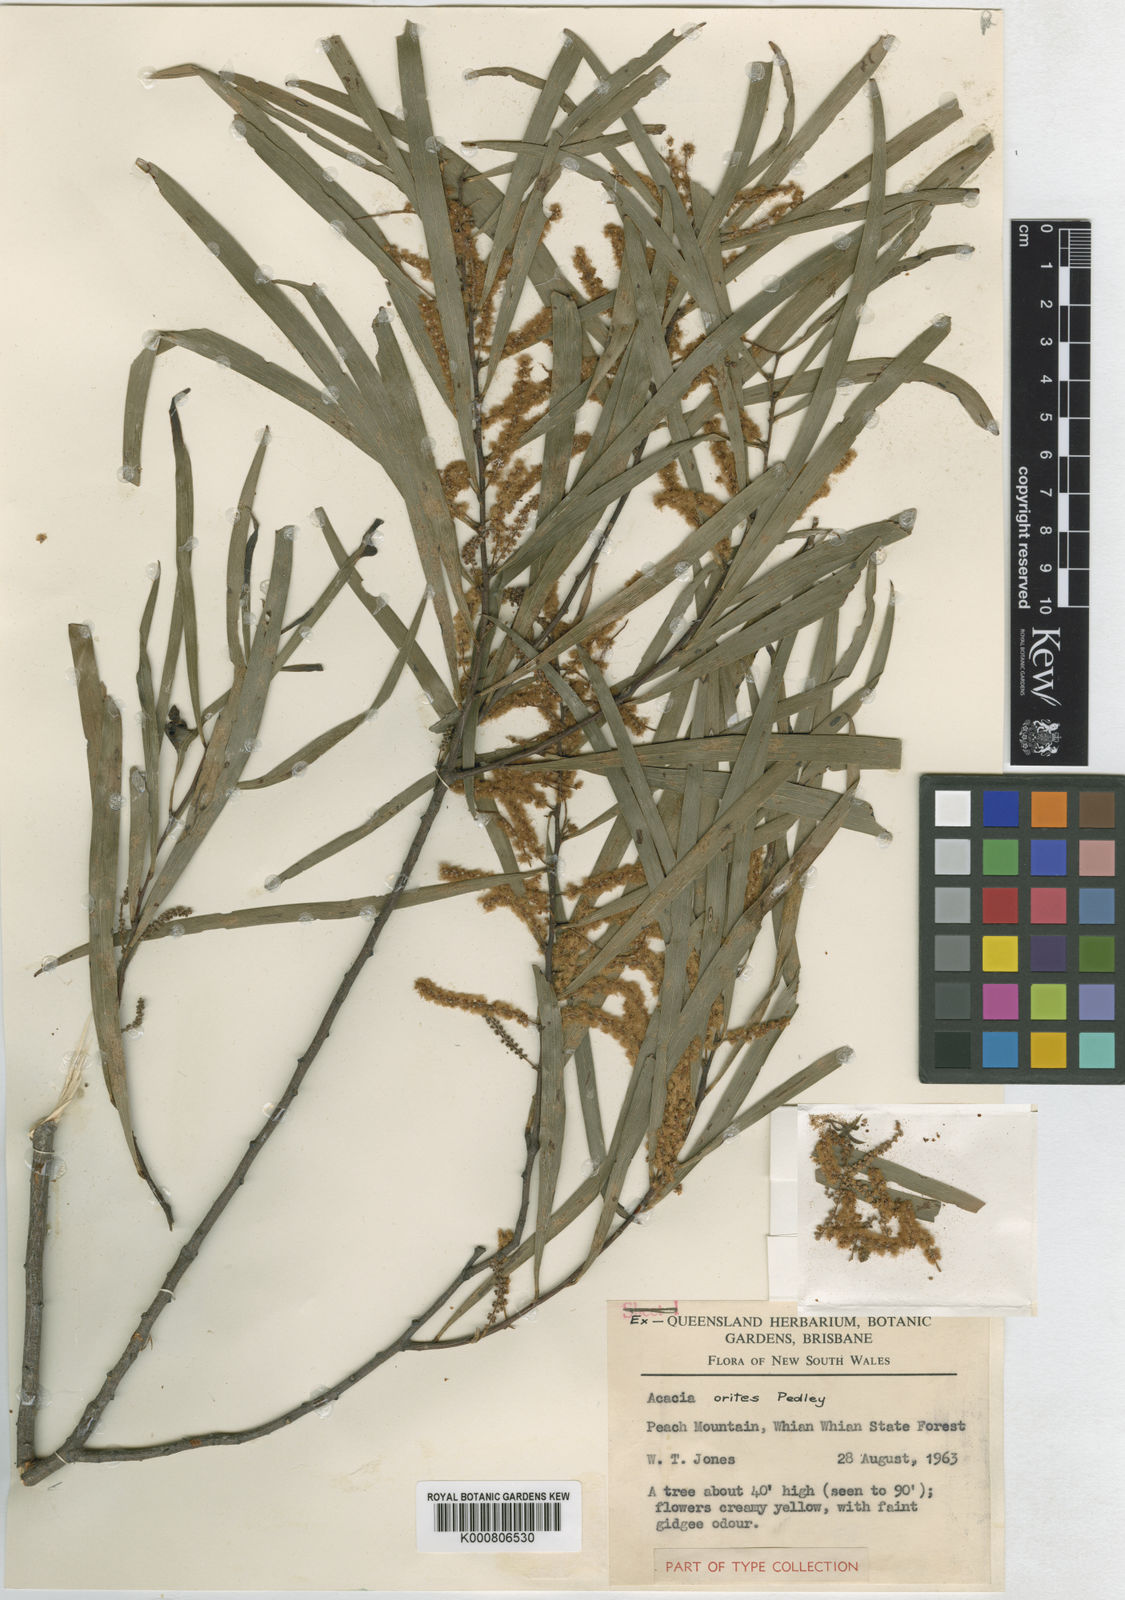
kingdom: Plantae
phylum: Tracheophyta
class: Magnoliopsida
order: Fabales
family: Fabaceae
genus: Acacia
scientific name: Acacia orites
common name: Mountain wattle
